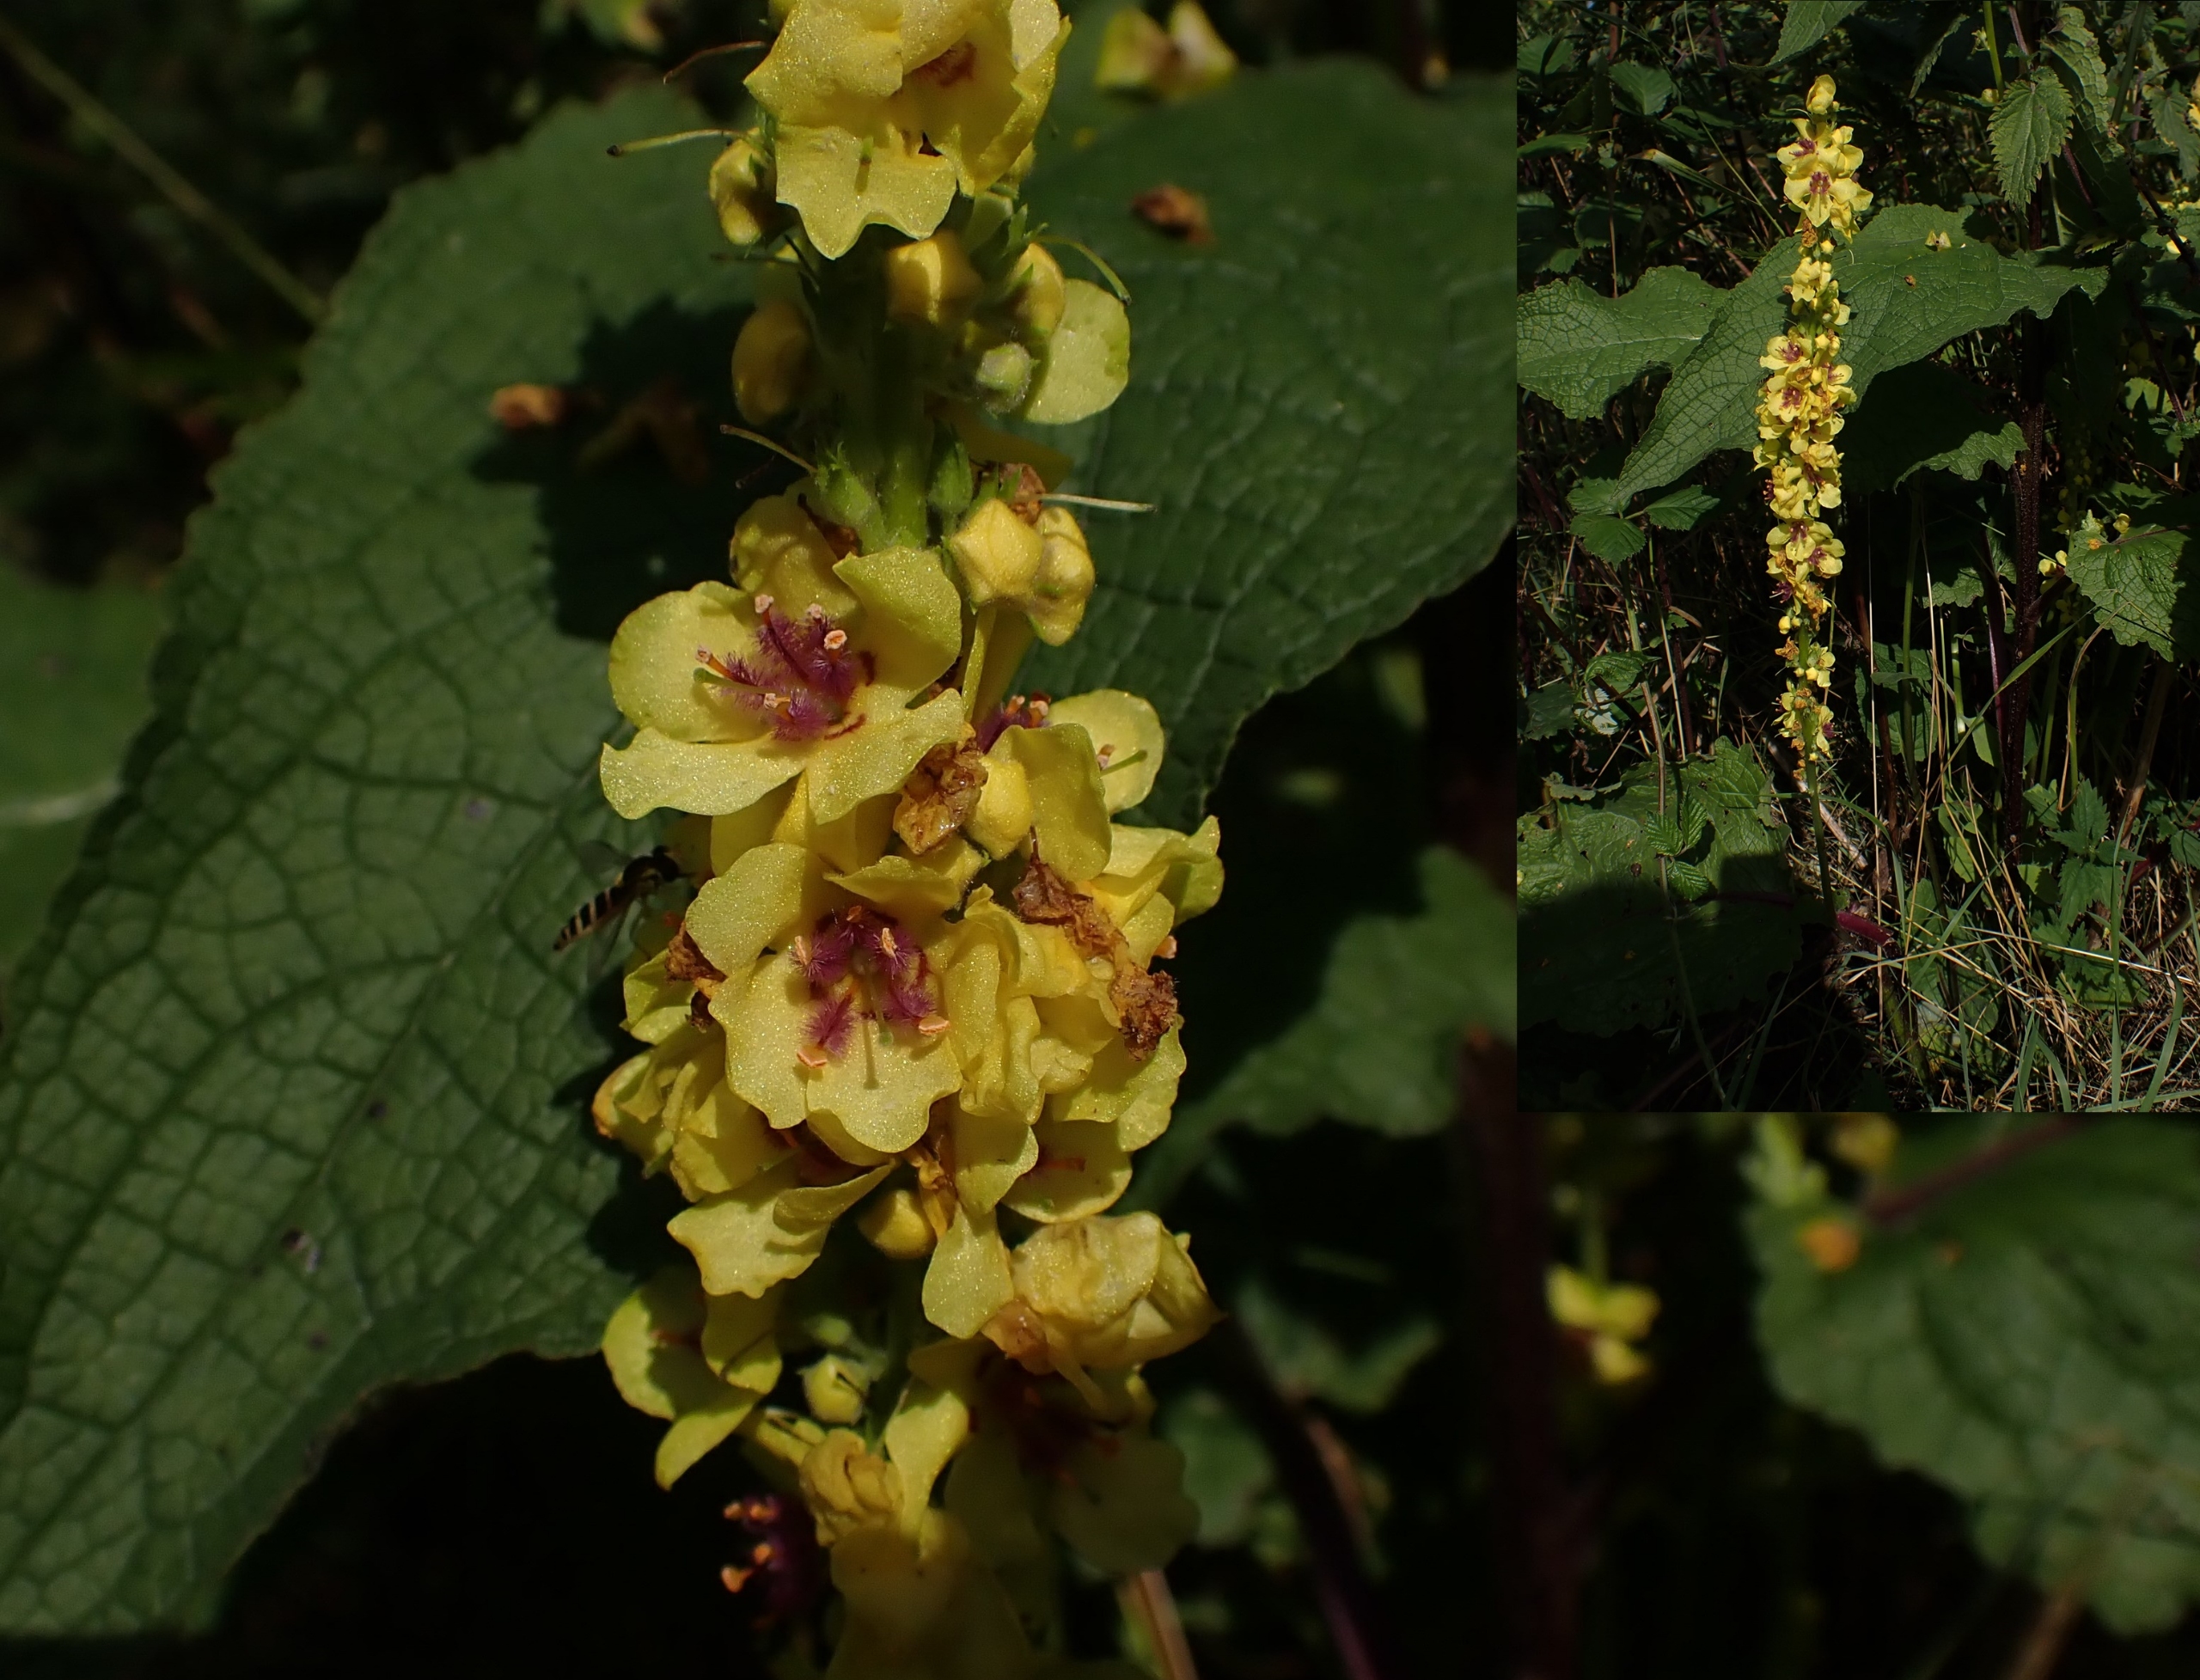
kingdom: Plantae
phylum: Tracheophyta
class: Magnoliopsida
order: Lamiales
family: Scrophulariaceae
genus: Verbascum
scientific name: Verbascum nigrum
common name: Mørk kongelys
